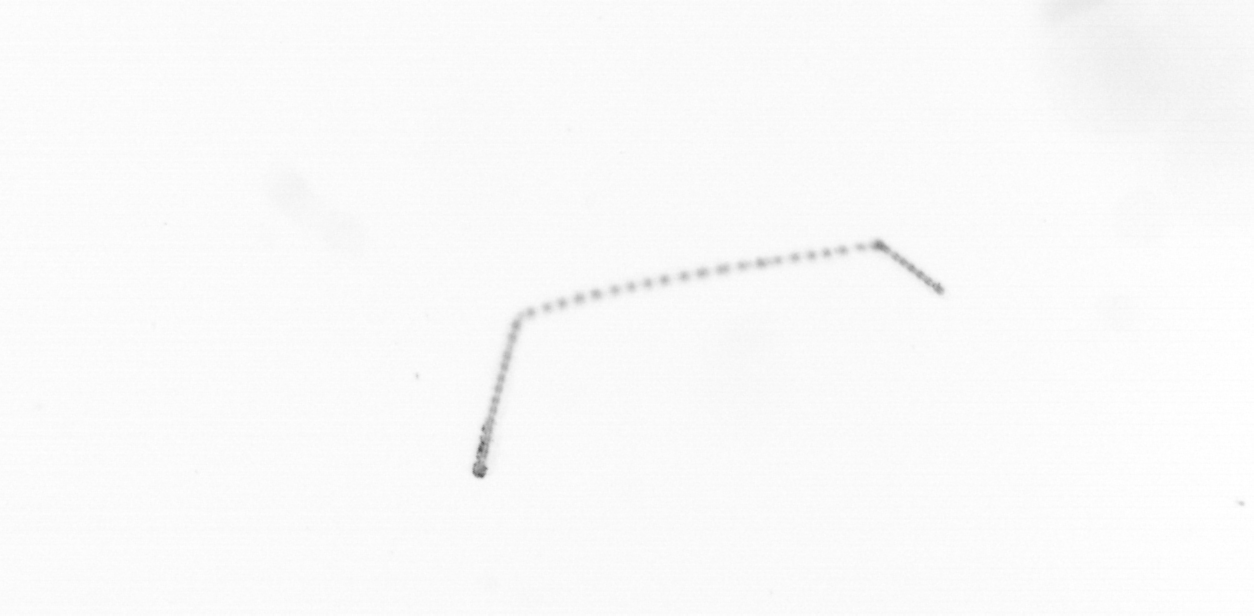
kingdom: Chromista
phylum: Ochrophyta
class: Bacillariophyceae
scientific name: Bacillariophyceae
